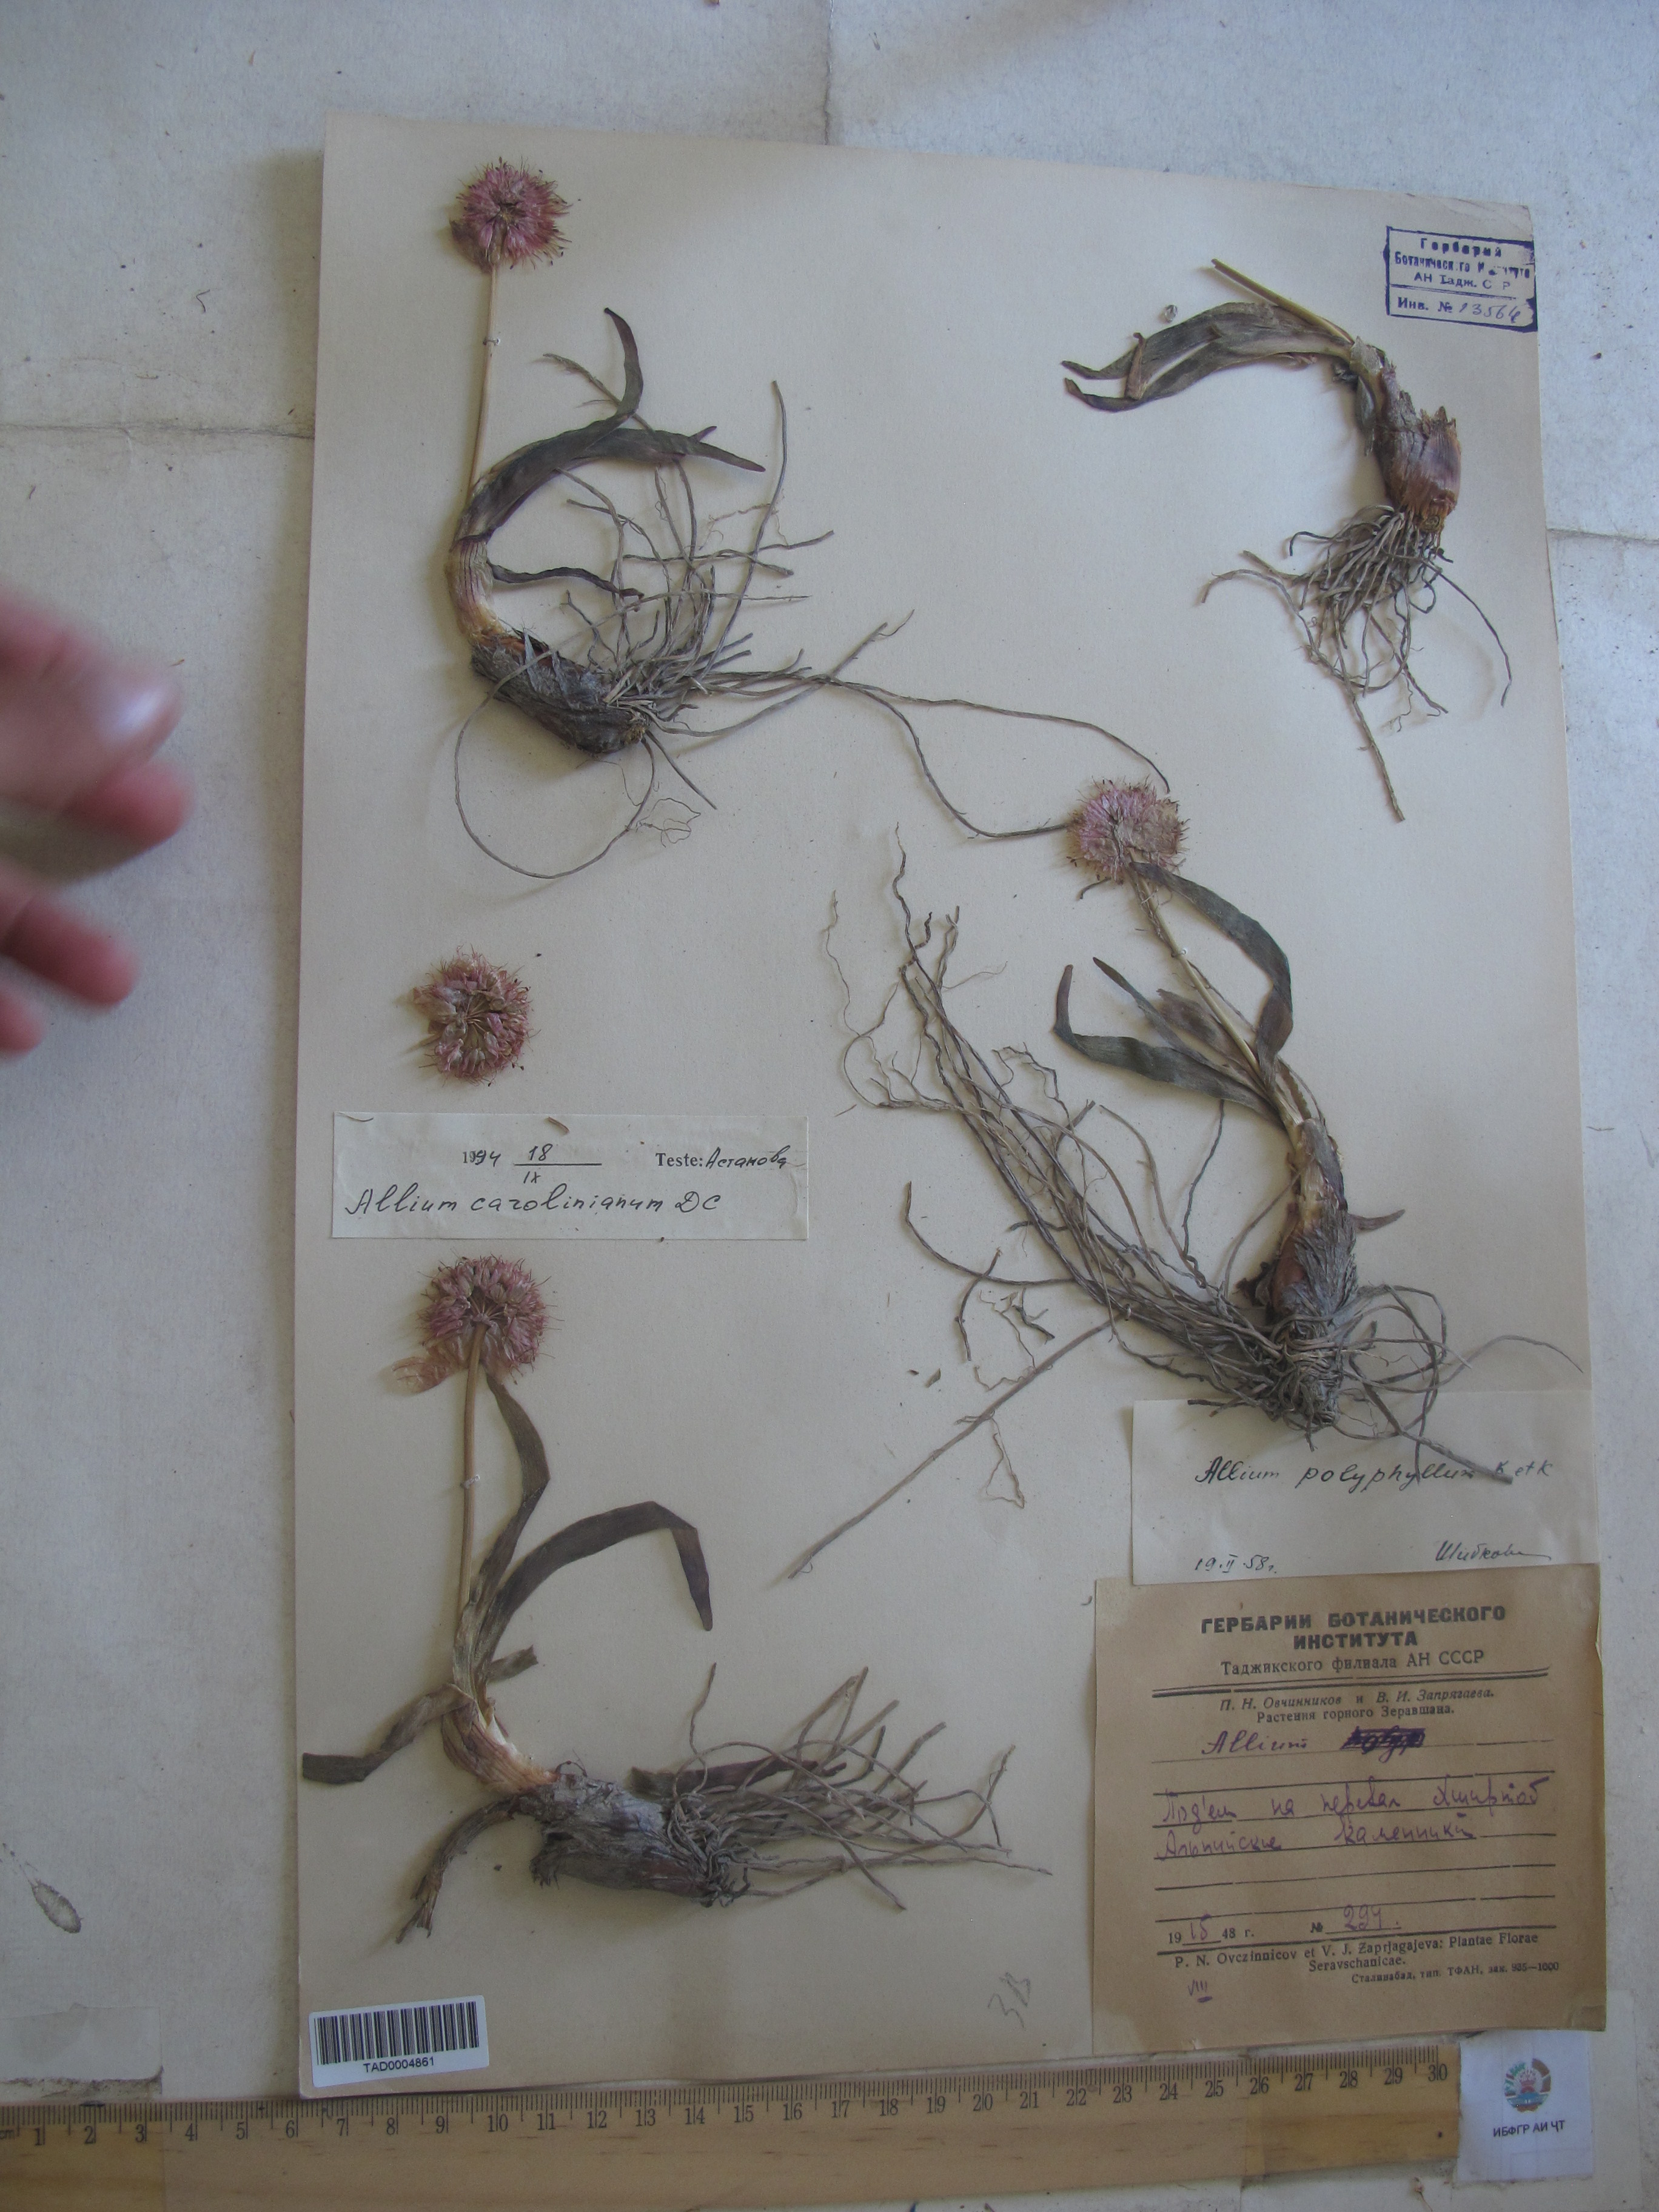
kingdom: Plantae
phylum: Tracheophyta
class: Liliopsida
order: Asparagales
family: Amaryllidaceae
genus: Allium
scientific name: Allium carolinianum
